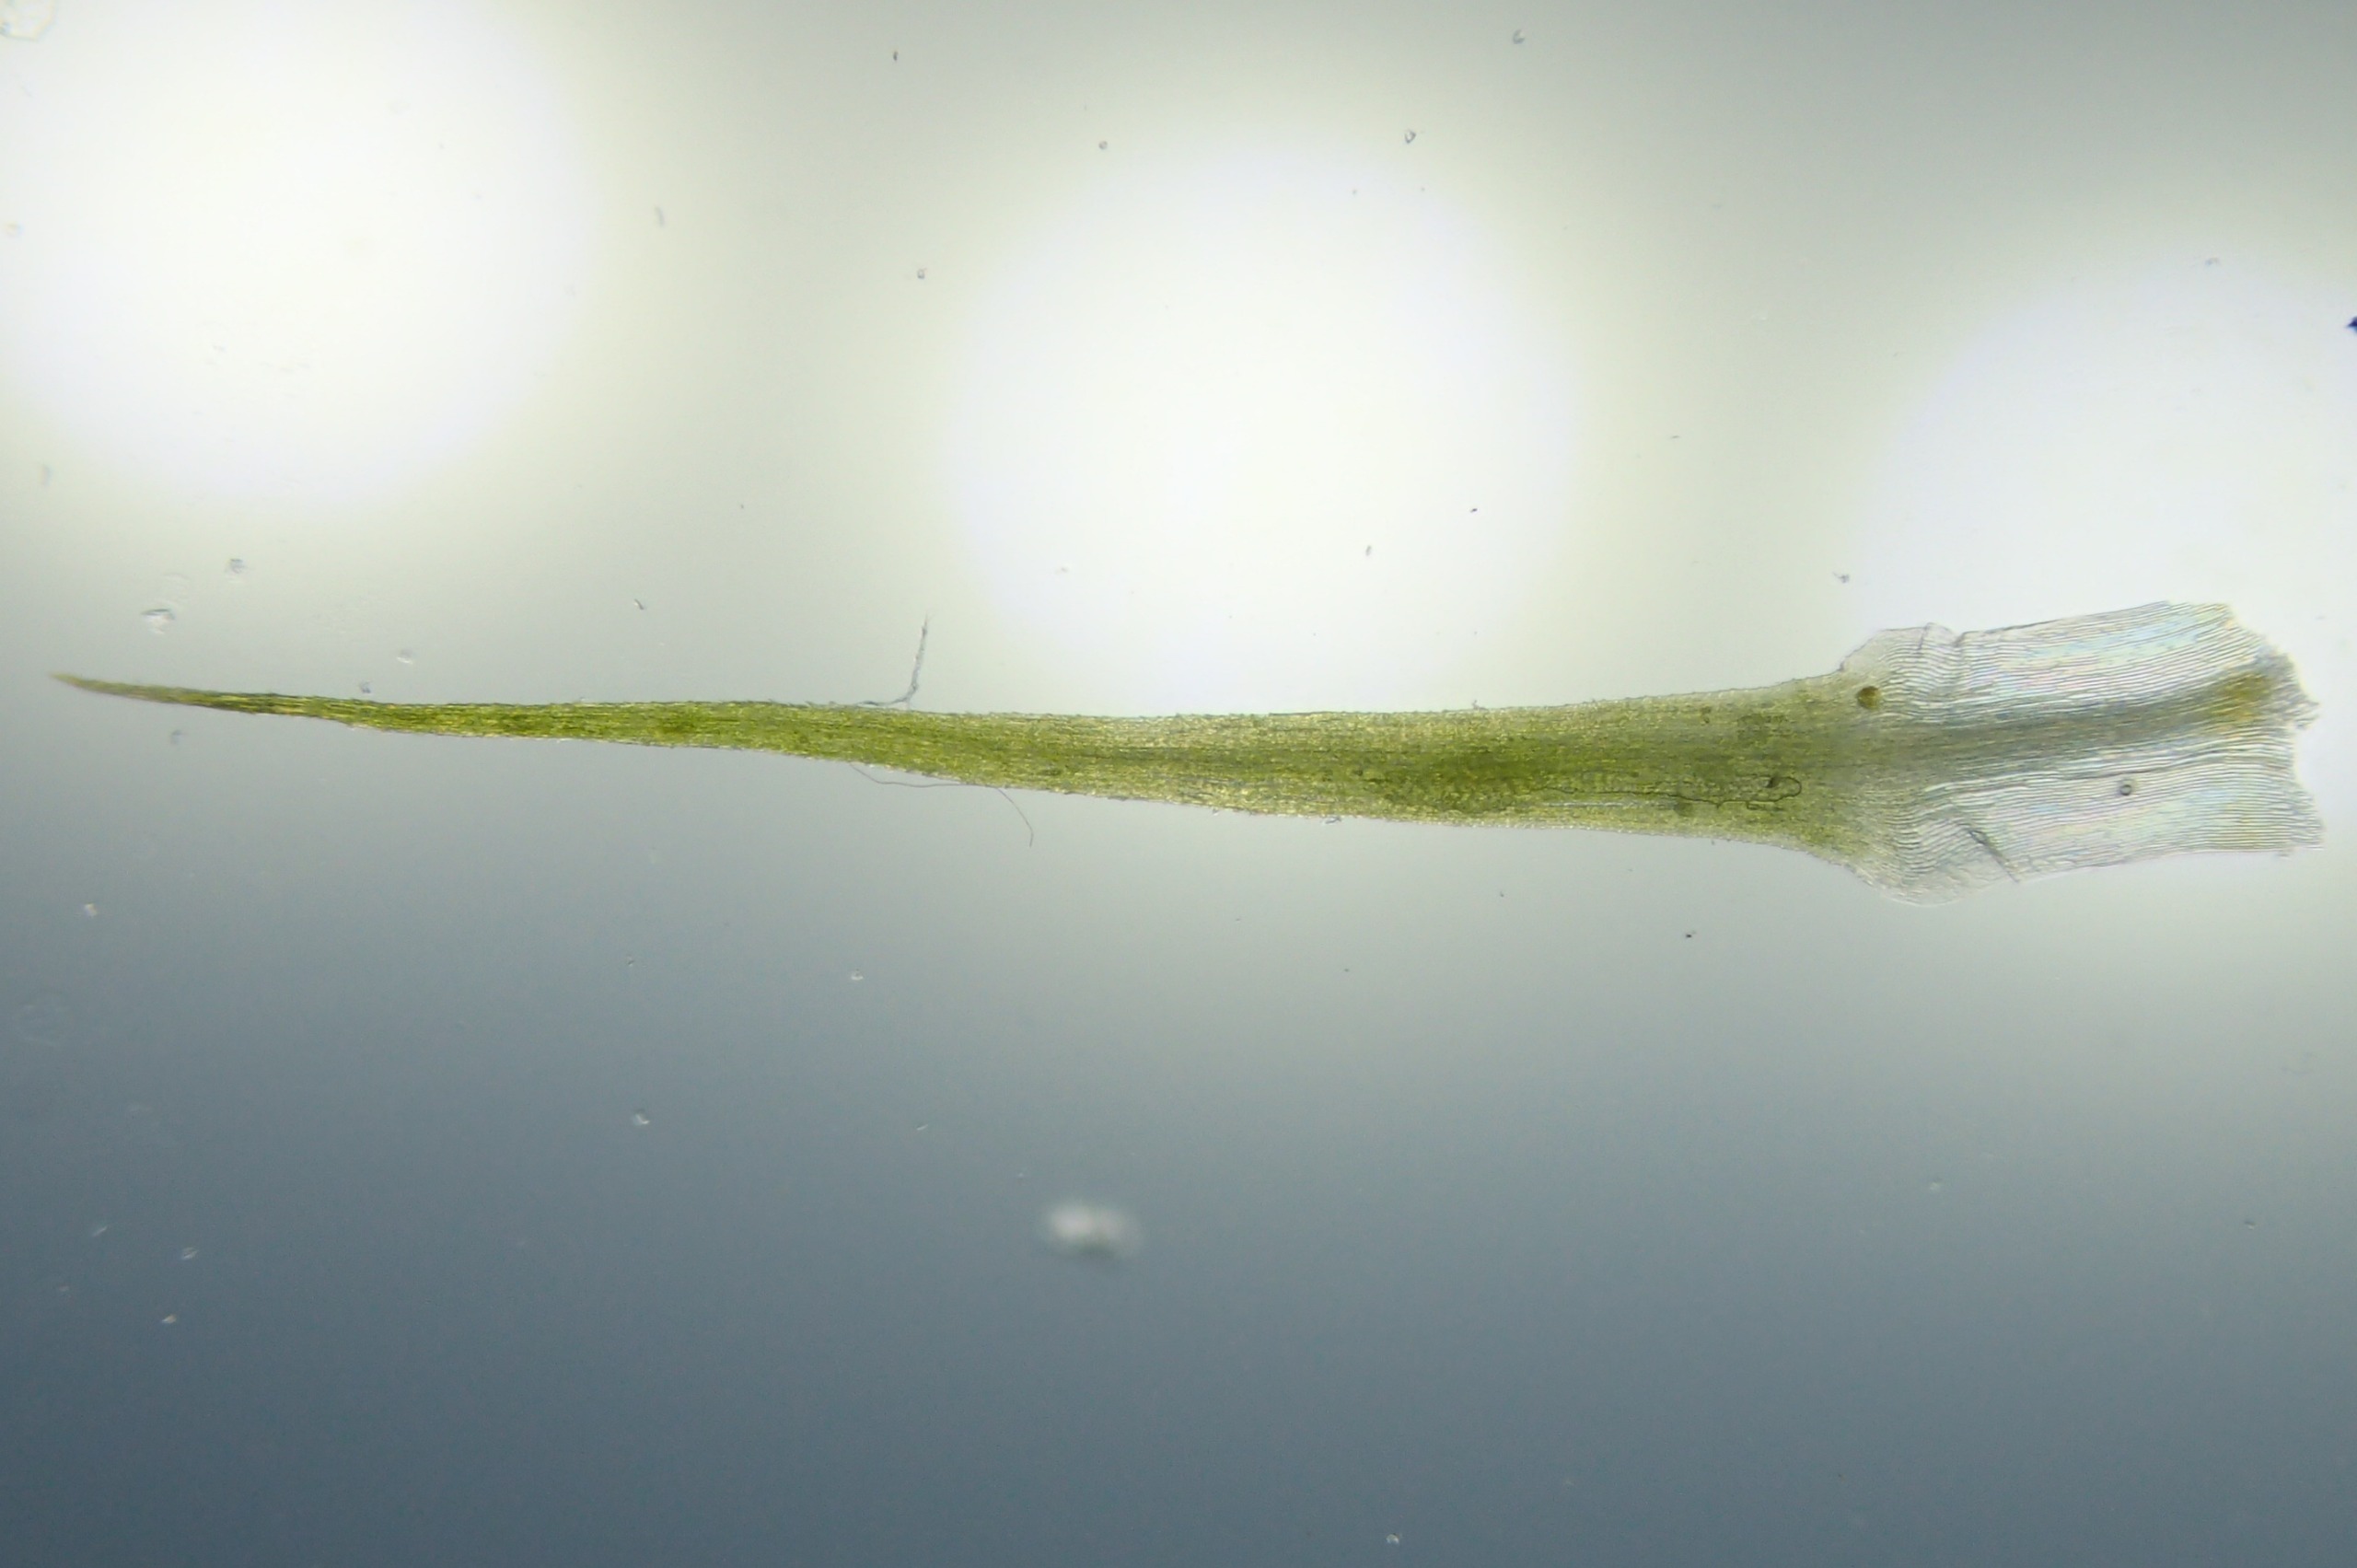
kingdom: Plantae
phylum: Bryophyta
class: Bryopsida
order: Bartramiales
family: Bartramiaceae
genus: Bartramia
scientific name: Bartramia ithyphylla
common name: Blågrøn kuglekapsel
